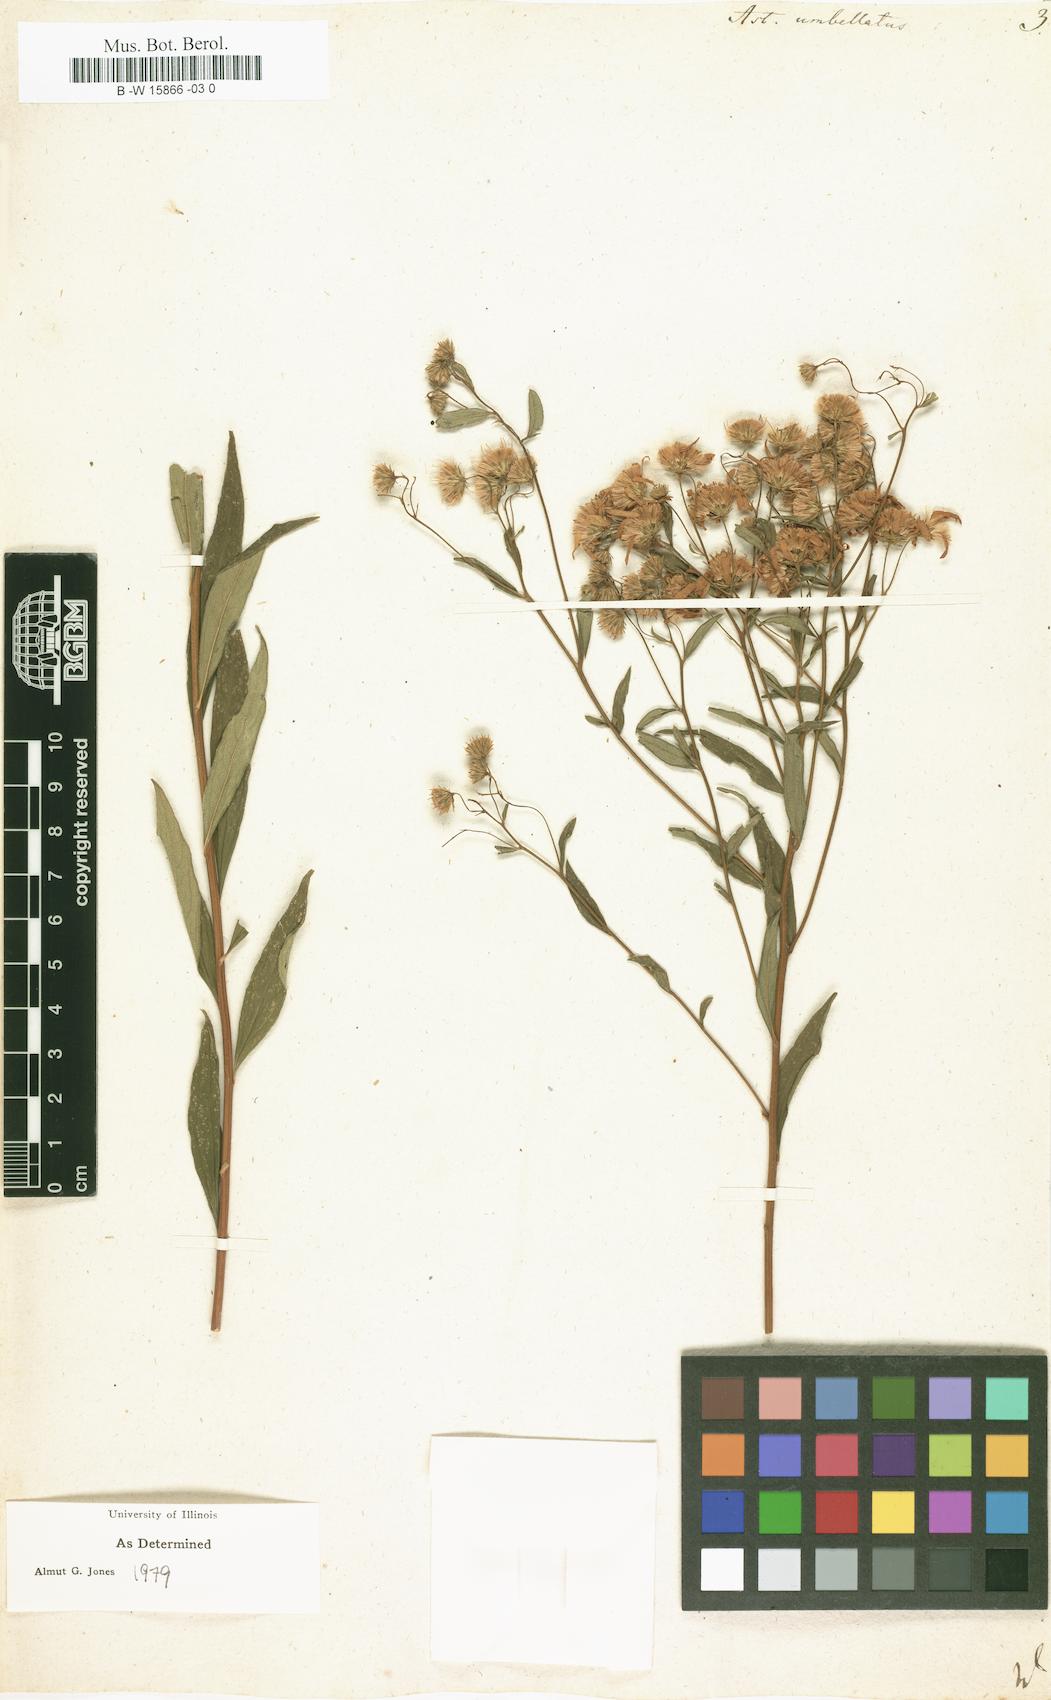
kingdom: Plantae
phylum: Tracheophyta
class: Magnoliopsida
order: Asterales
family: Asteraceae
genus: Doellingeria
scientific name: Doellingeria umbellata
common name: Flat-top white aster
